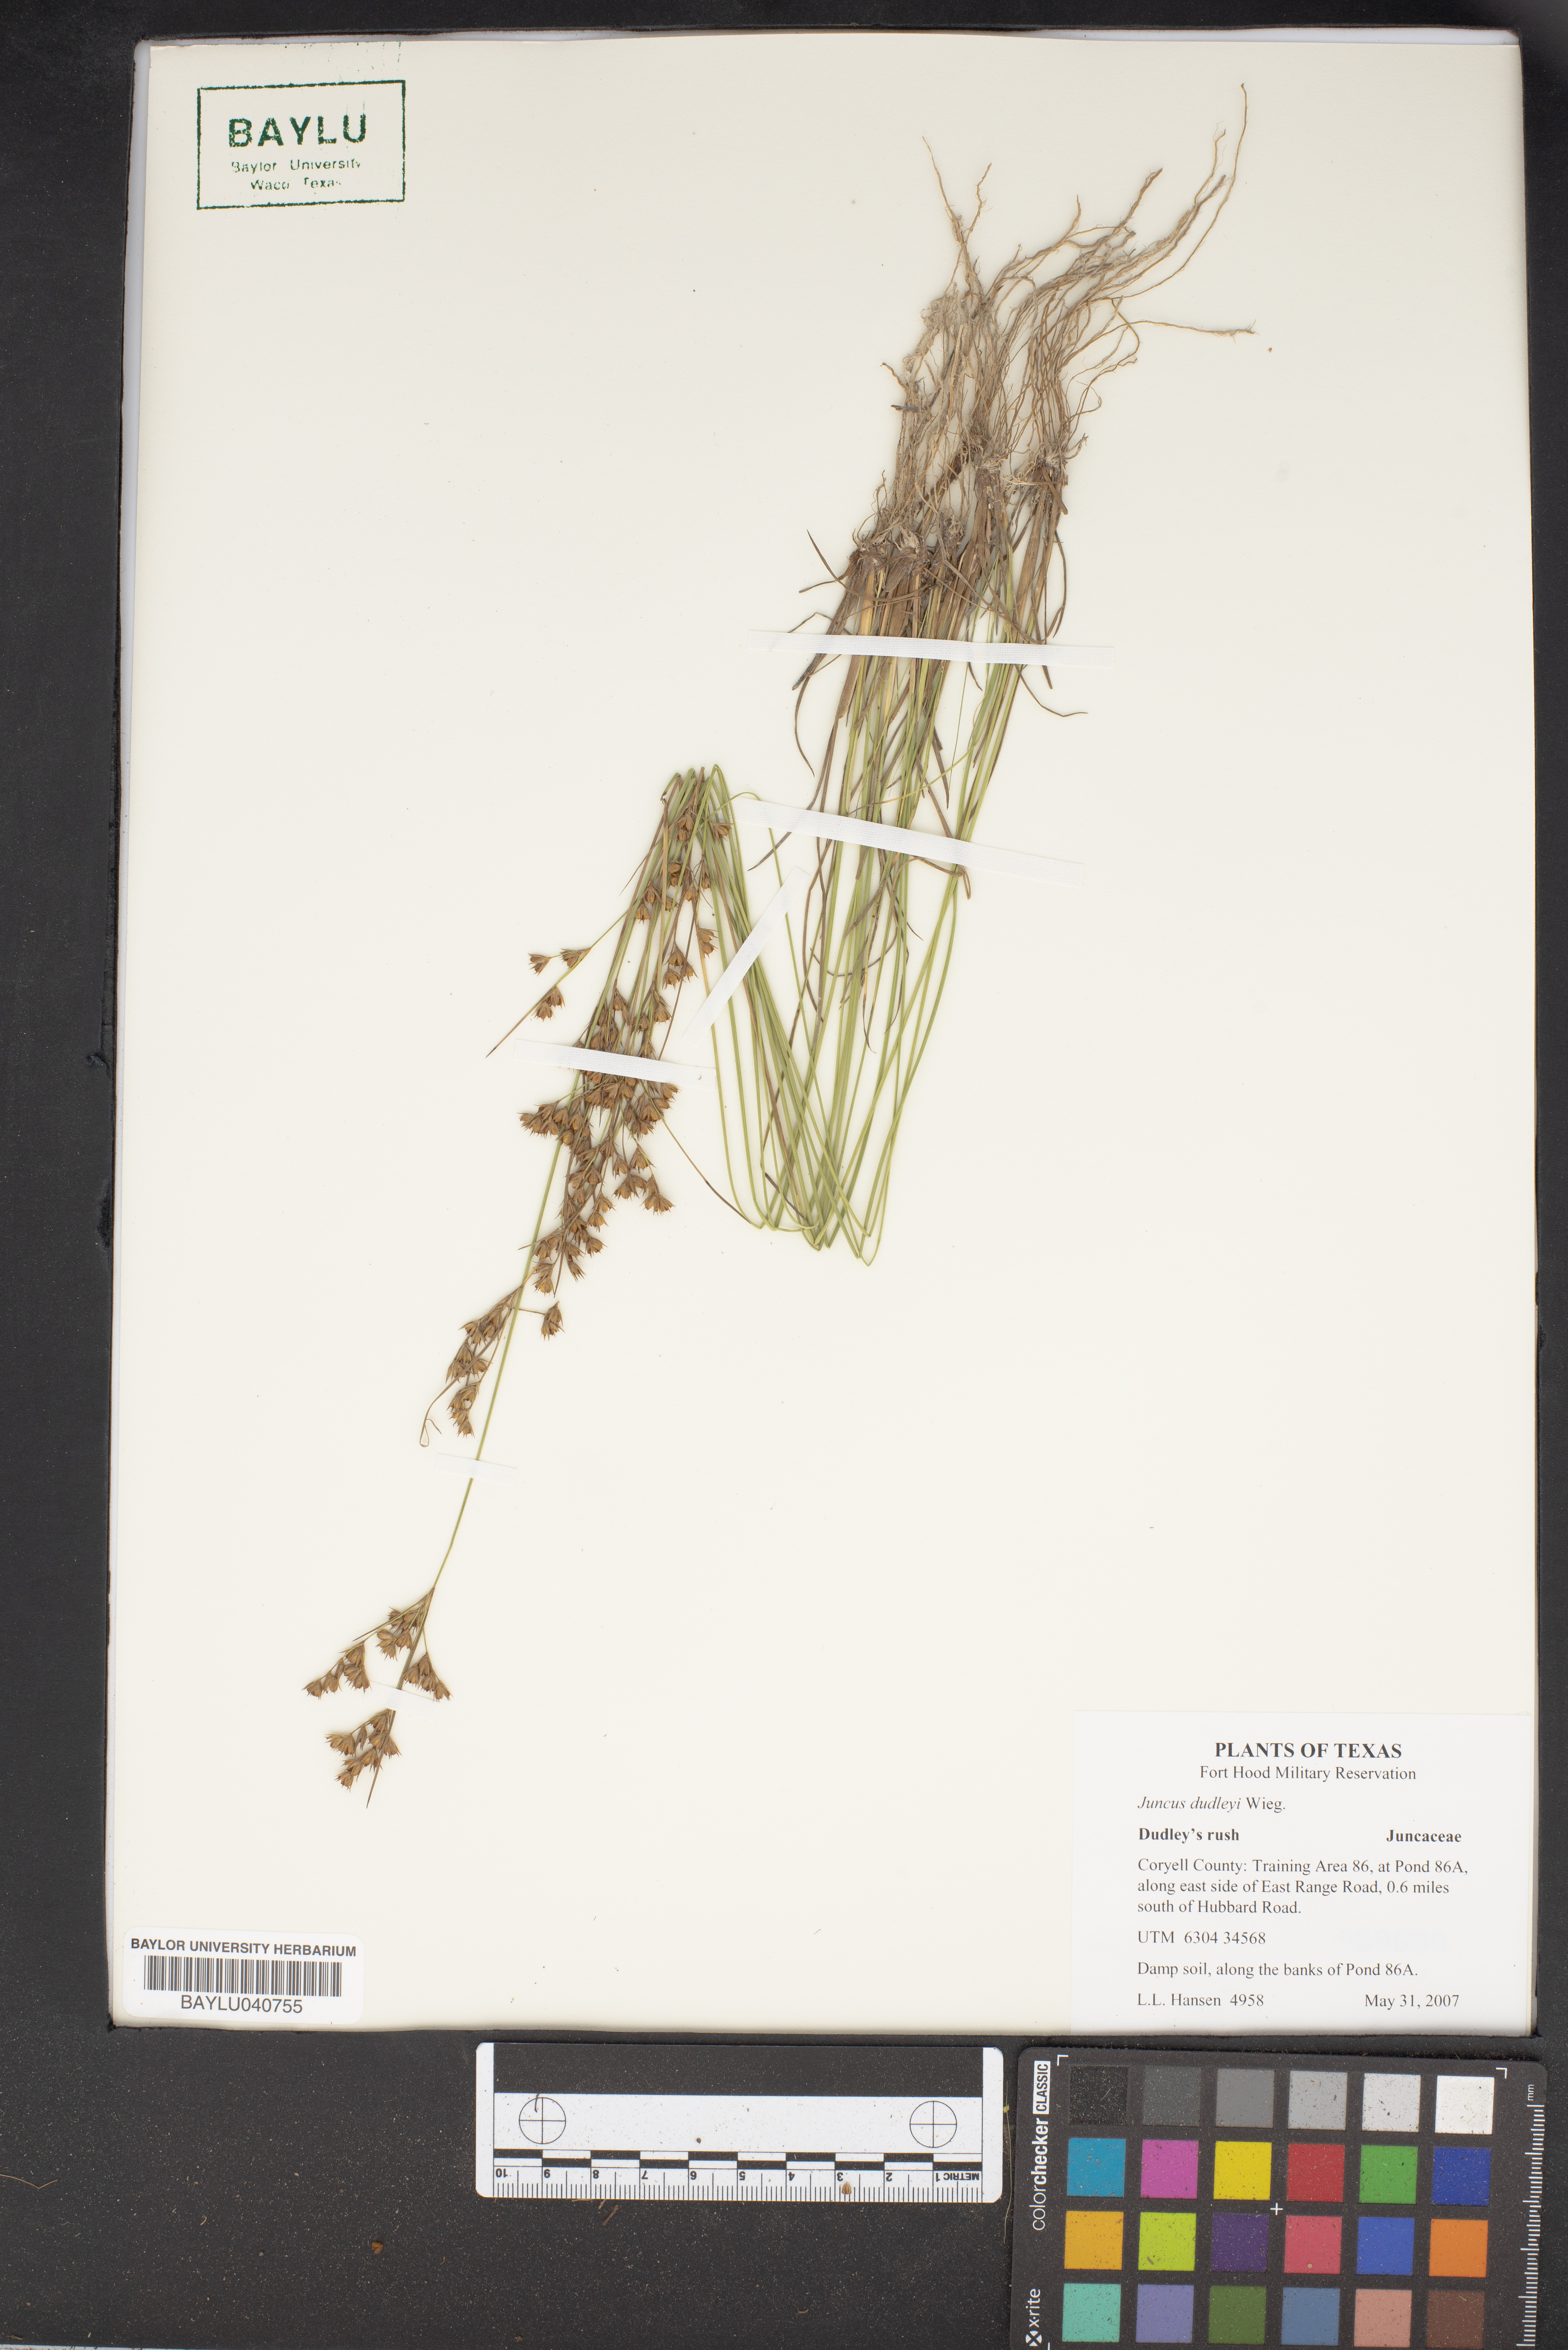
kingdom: Plantae
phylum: Tracheophyta
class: Liliopsida
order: Poales
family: Juncaceae
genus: Juncus
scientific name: Juncus dudleyi
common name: Dudley's rush
